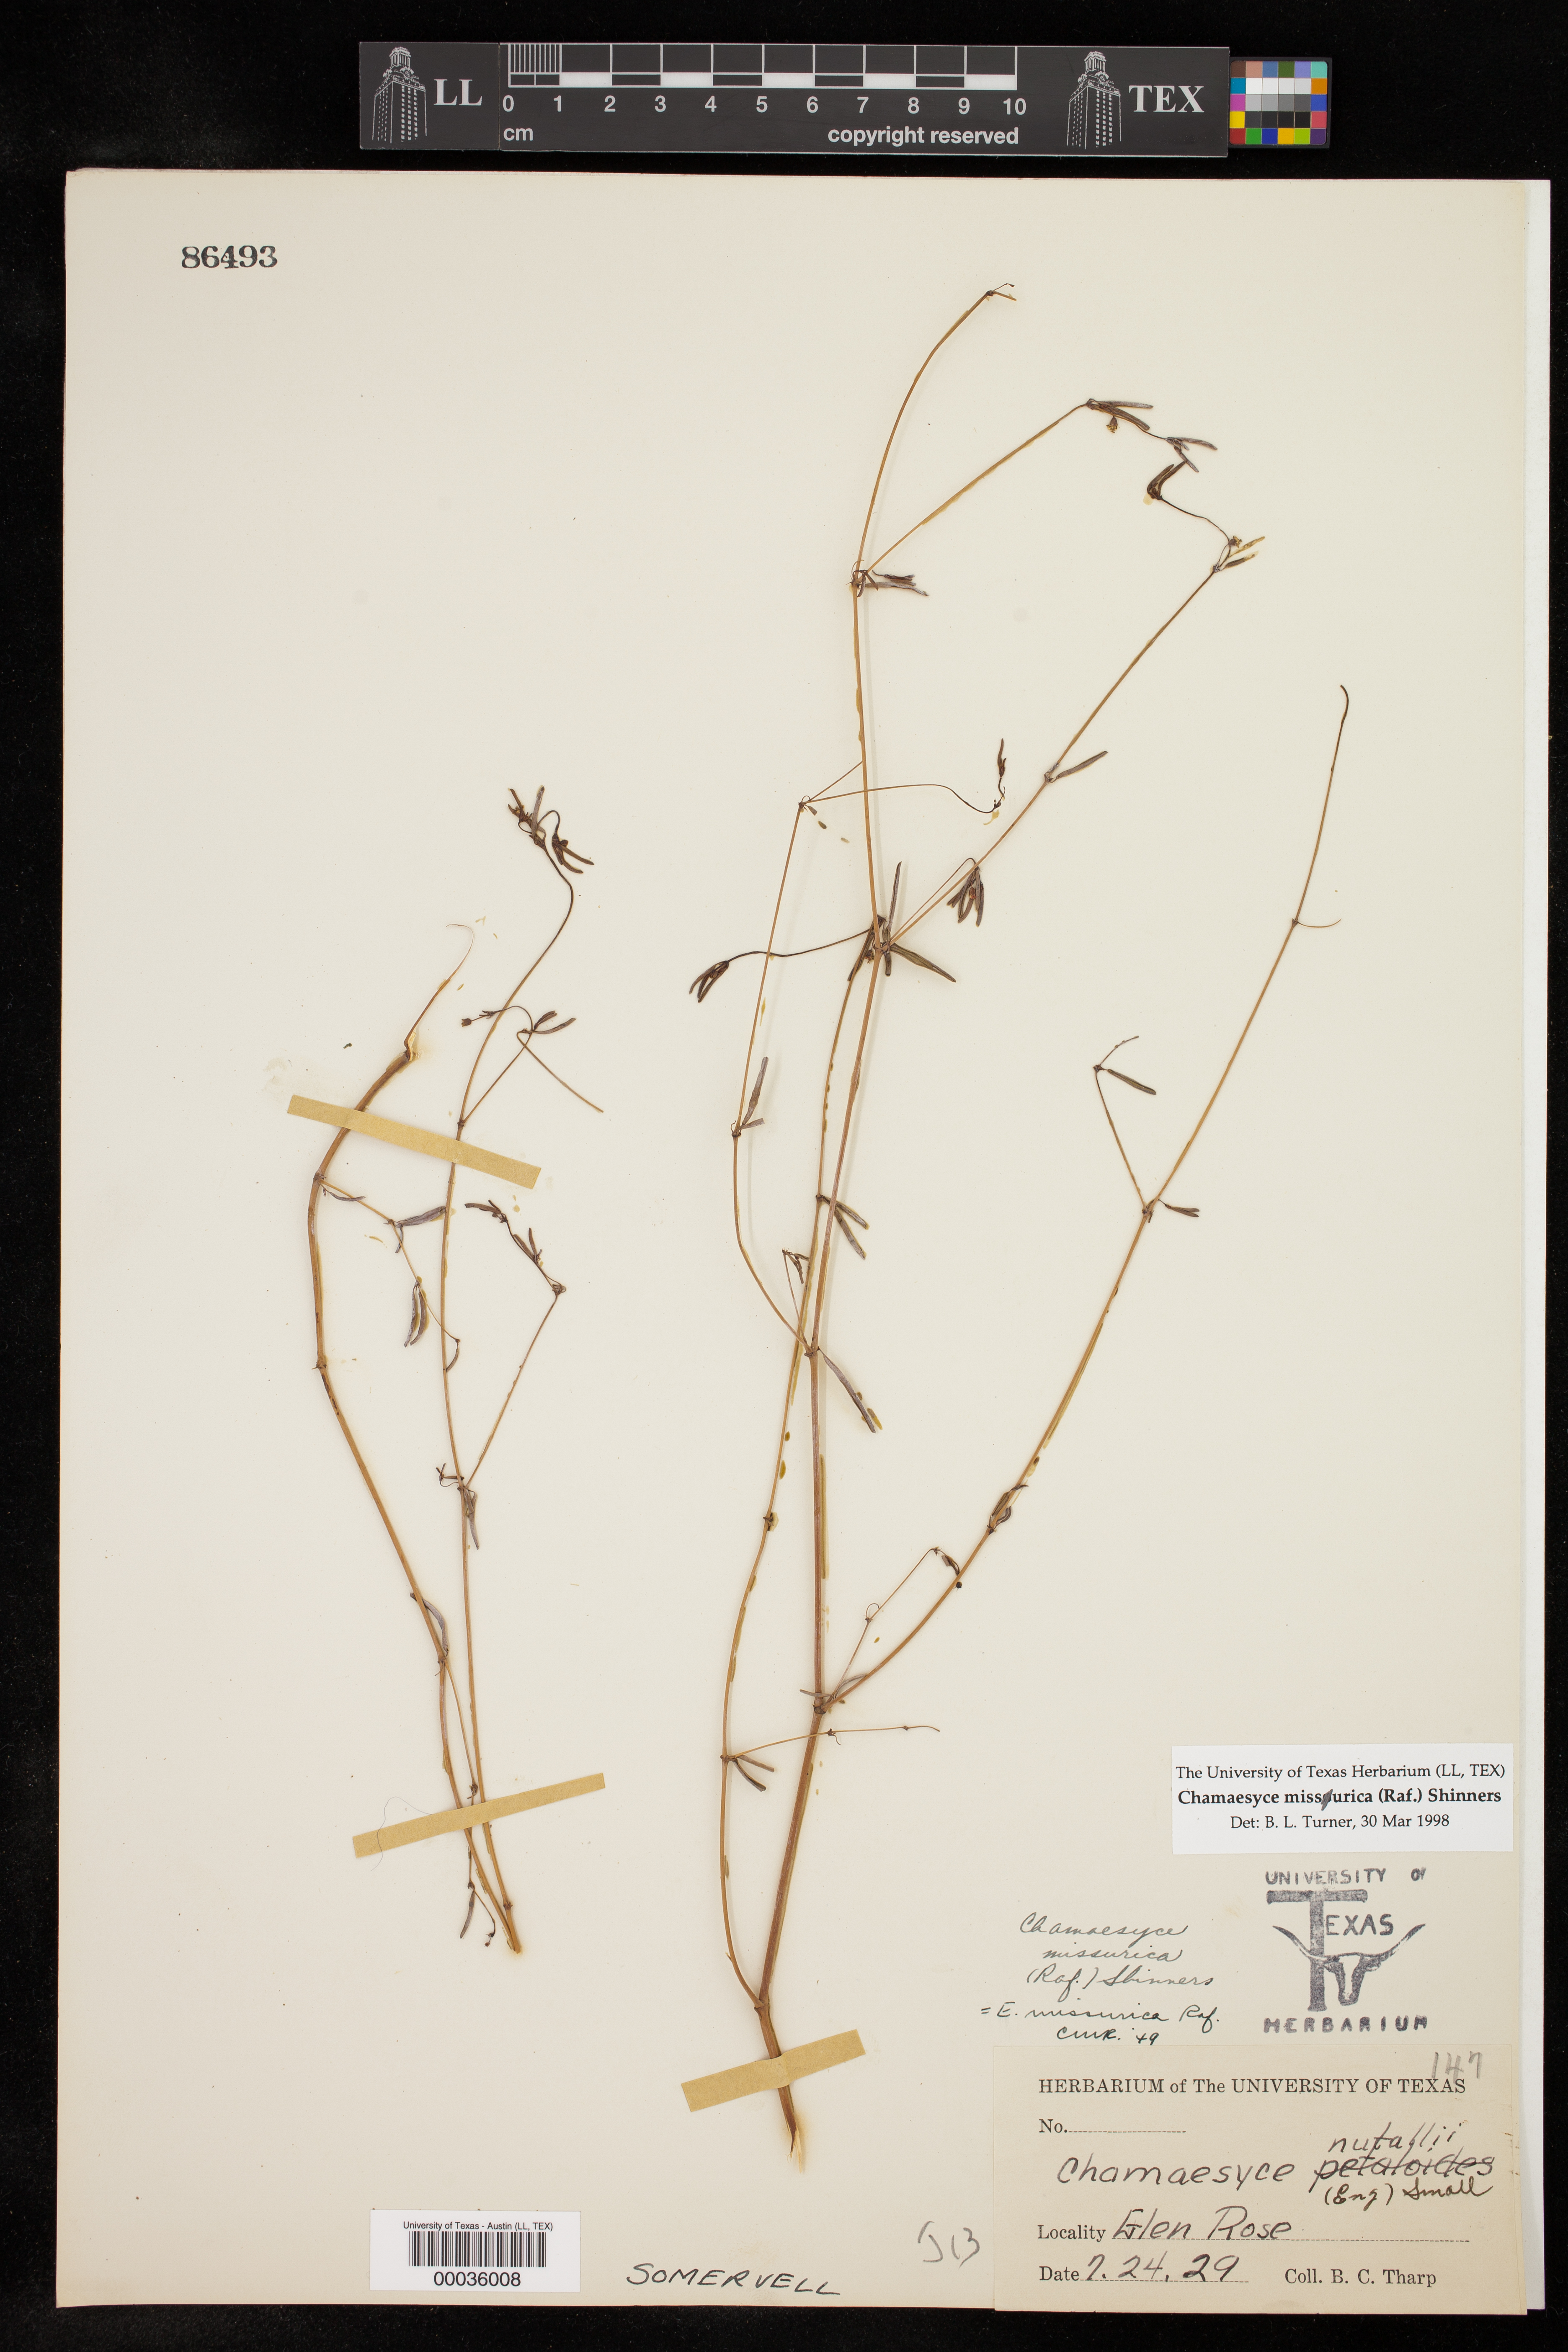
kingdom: Plantae
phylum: Tracheophyta
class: Magnoliopsida
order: Malpighiales
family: Euphorbiaceae
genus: Euphorbia
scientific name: Euphorbia missurica
